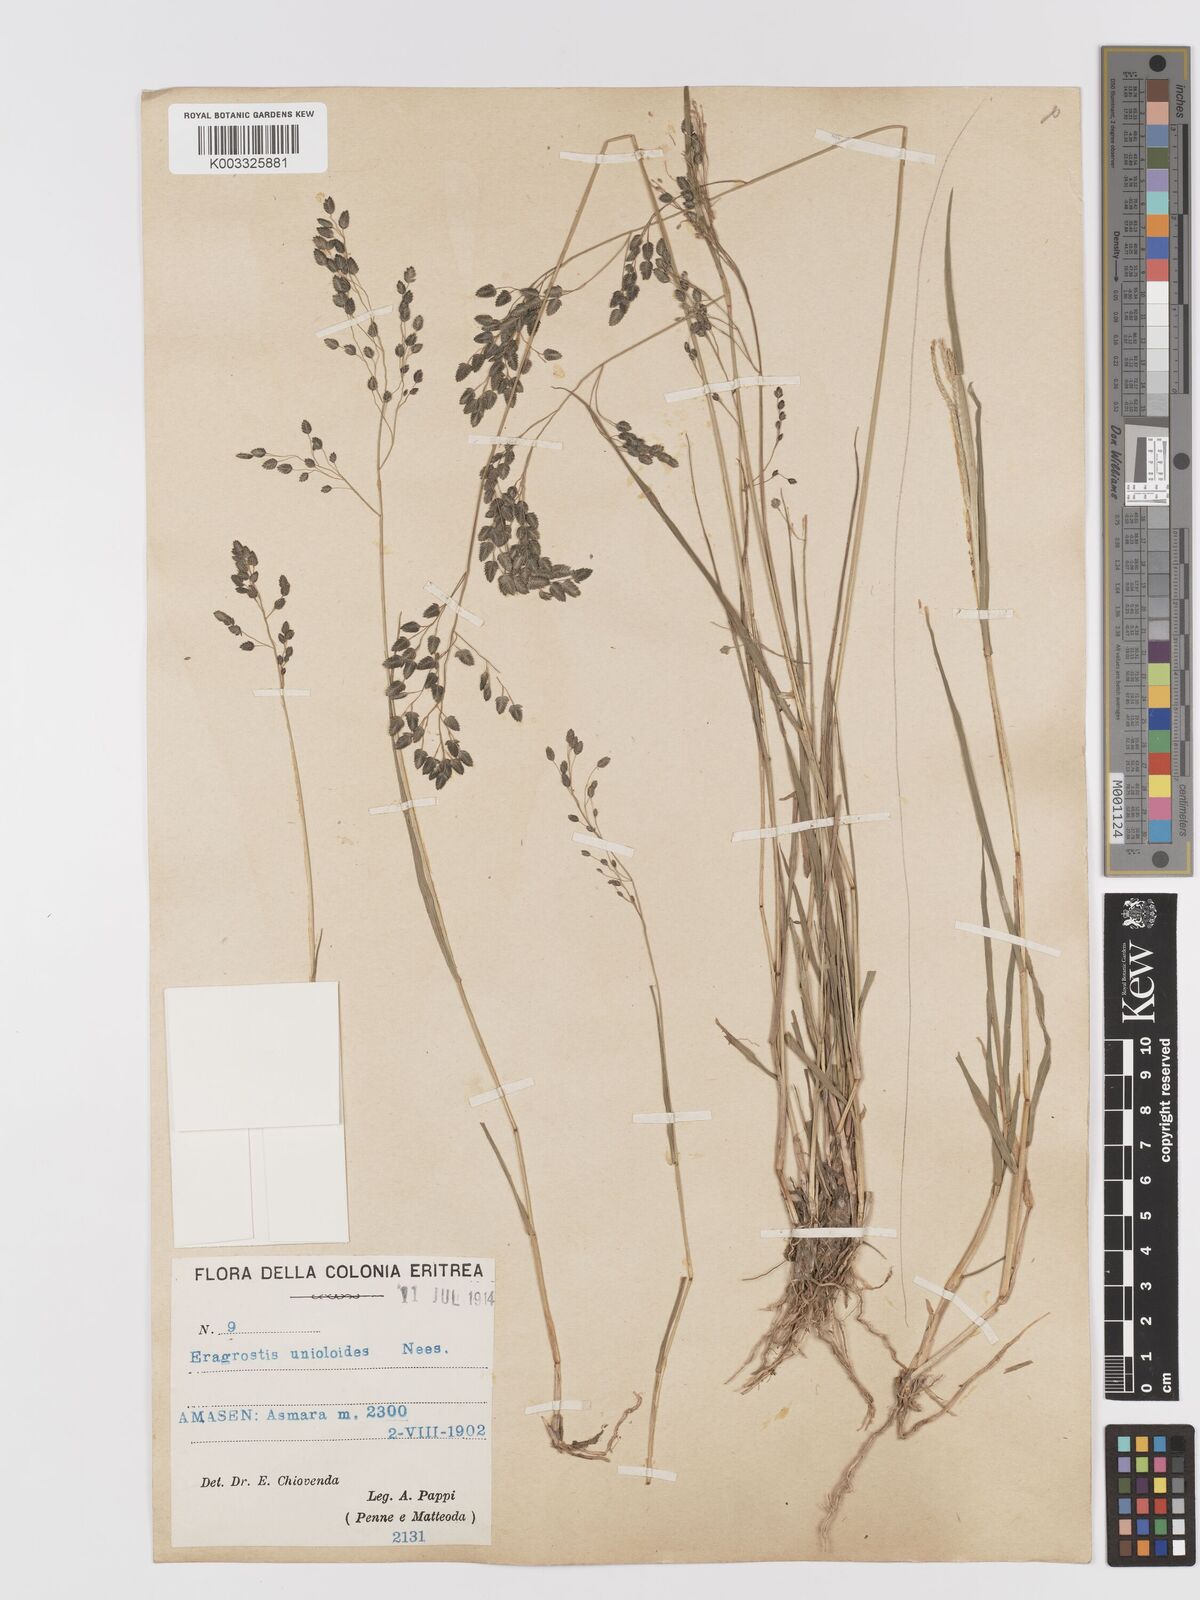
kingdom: Plantae
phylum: Tracheophyta
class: Liliopsida
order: Poales
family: Poaceae
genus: Eragrostis
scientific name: Eragrostis paniciformis
